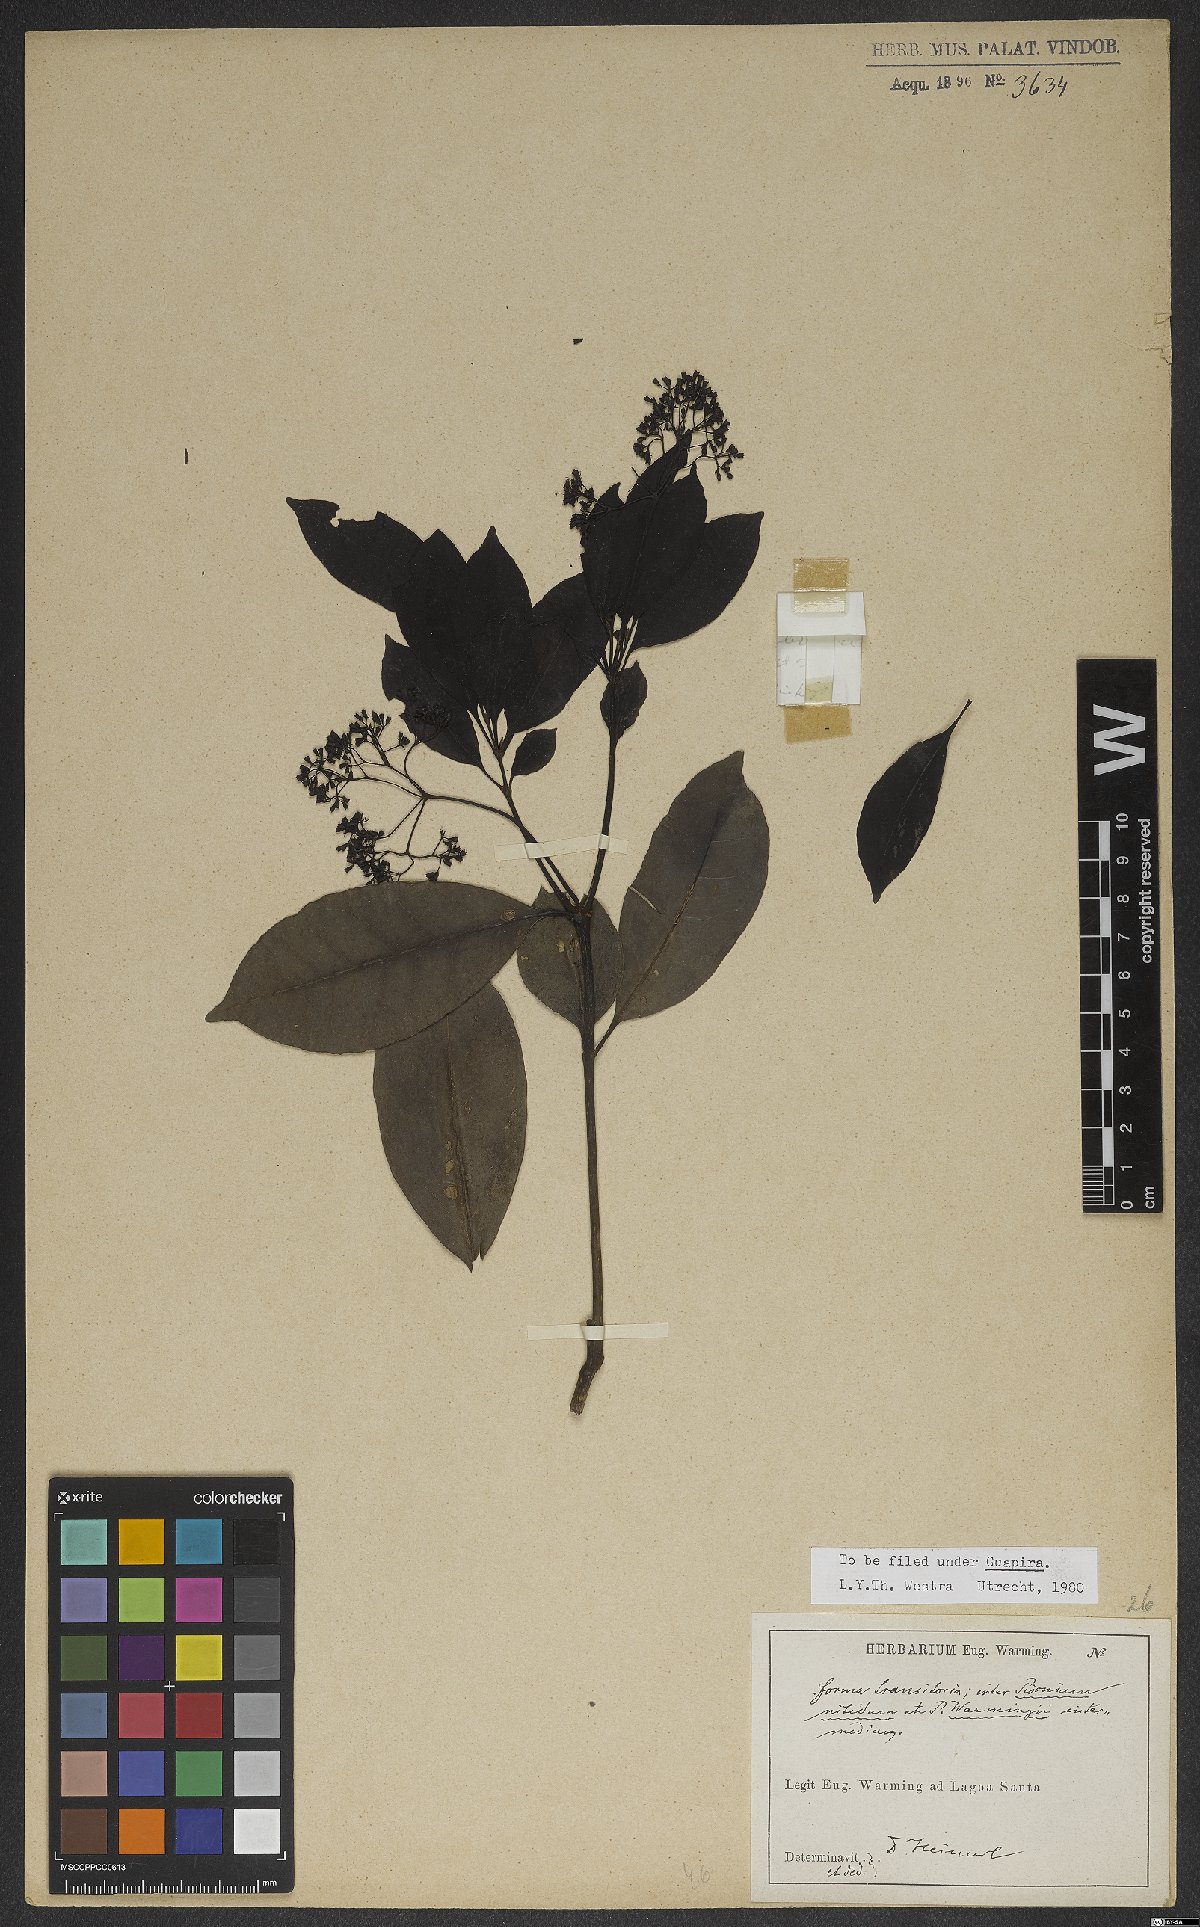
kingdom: Plantae
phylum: Tracheophyta
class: Magnoliopsida
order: Caryophyllales
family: Nyctaginaceae
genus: Guapira
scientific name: Guapira nitida
